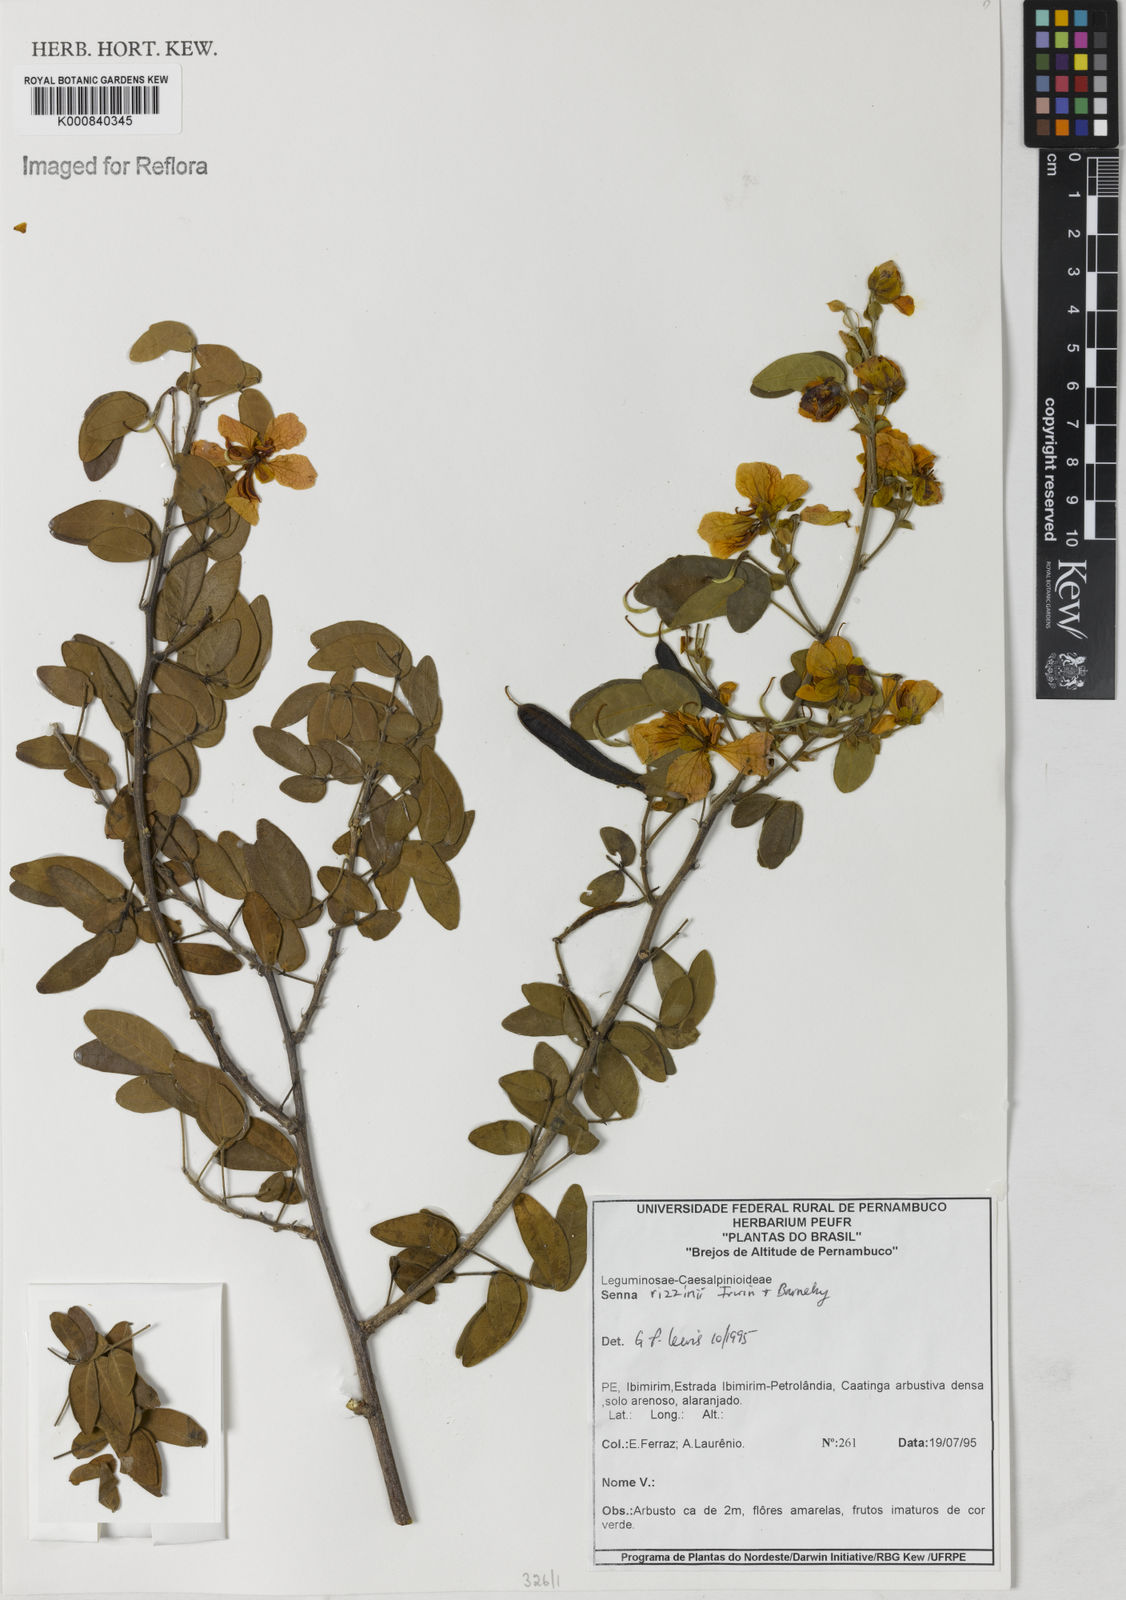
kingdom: Plantae
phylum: Tracheophyta
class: Magnoliopsida
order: Fabales
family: Fabaceae
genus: Senna
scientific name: Senna rizzinii
